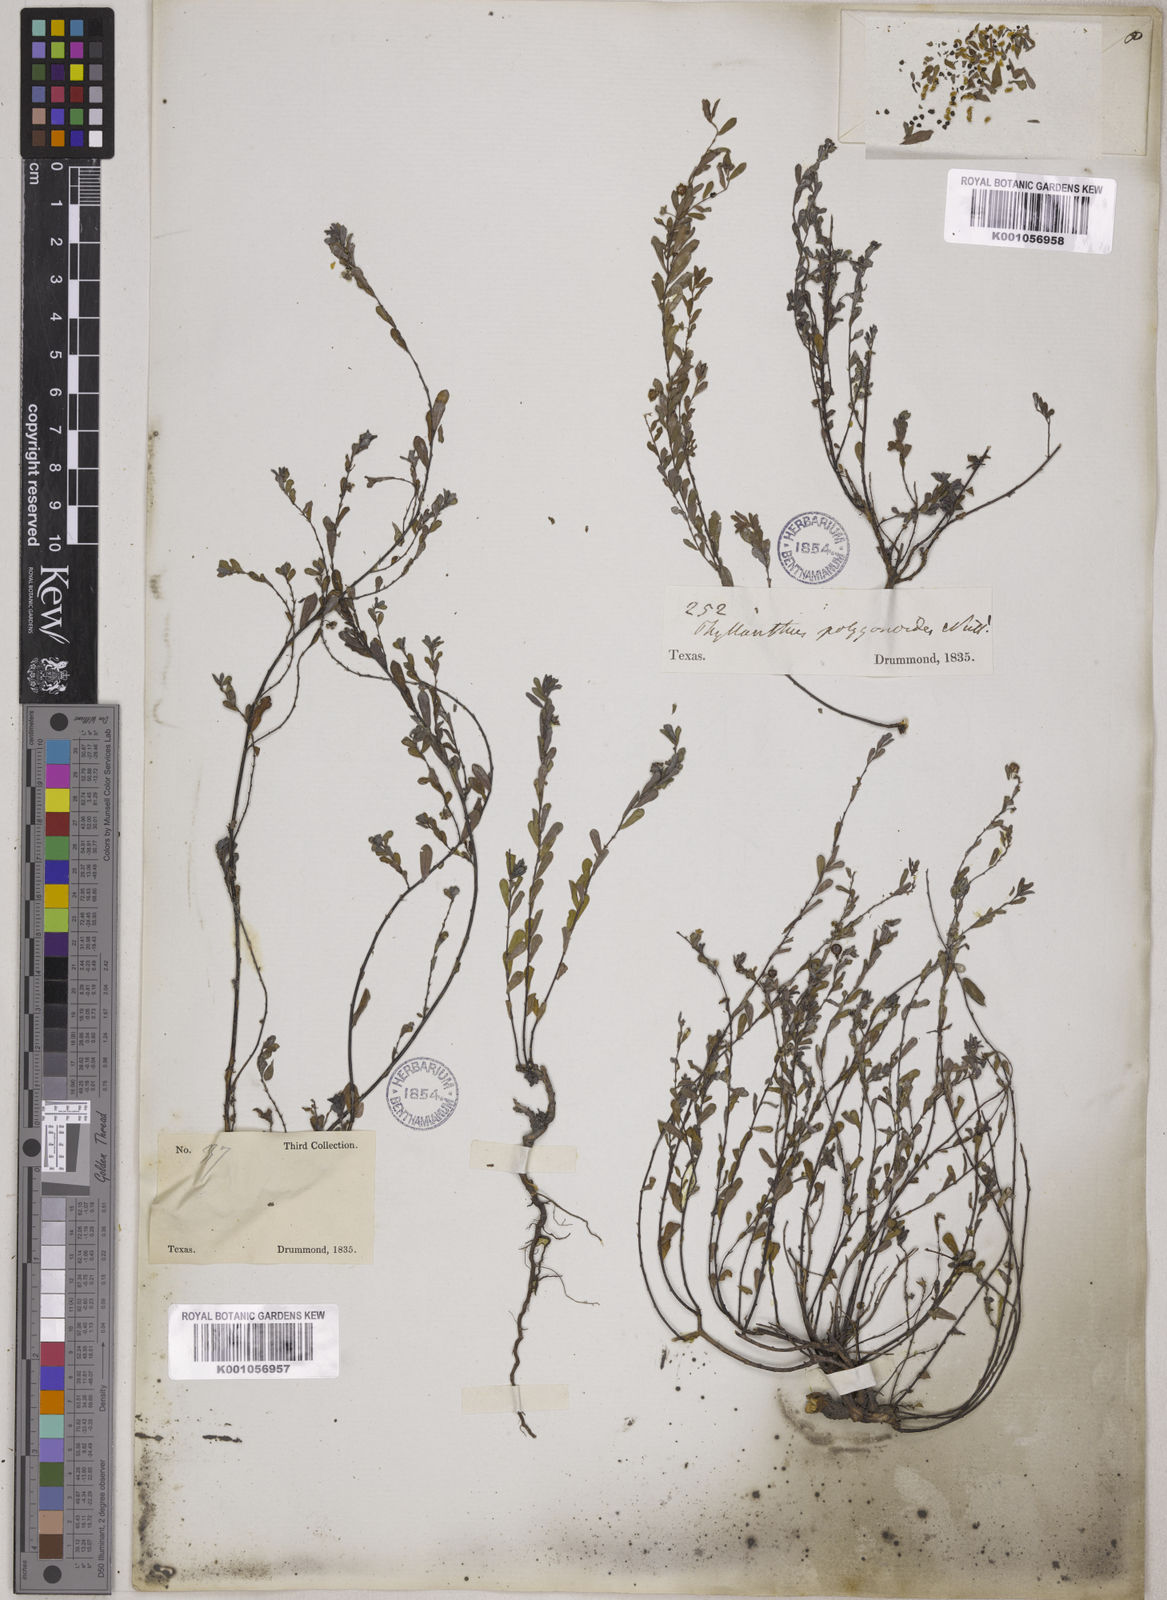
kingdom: Plantae
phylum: Tracheophyta
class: Magnoliopsida
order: Malpighiales
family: Phyllanthaceae
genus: Phyllanthus
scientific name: Phyllanthus polygonoides
